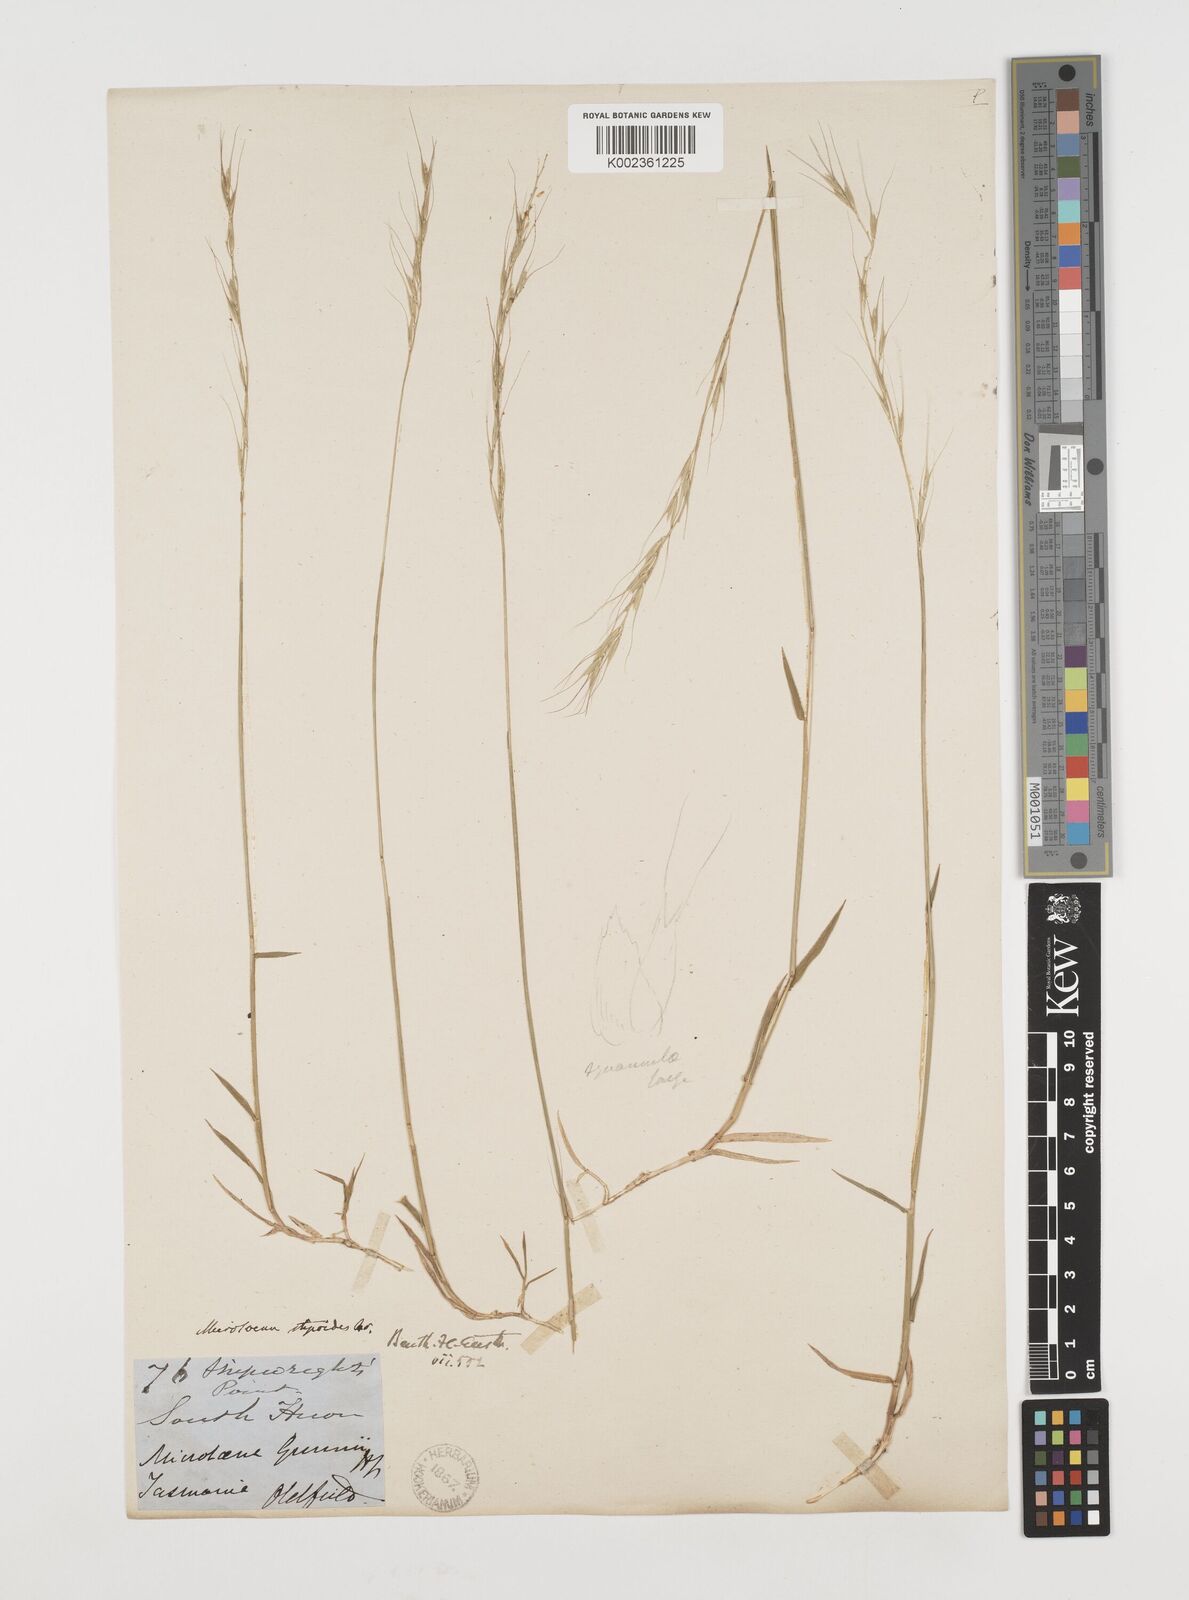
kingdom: Plantae
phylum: Tracheophyta
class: Liliopsida
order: Poales
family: Poaceae
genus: Microlaena
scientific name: Microlaena stipoides
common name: Meadow ricegrass
